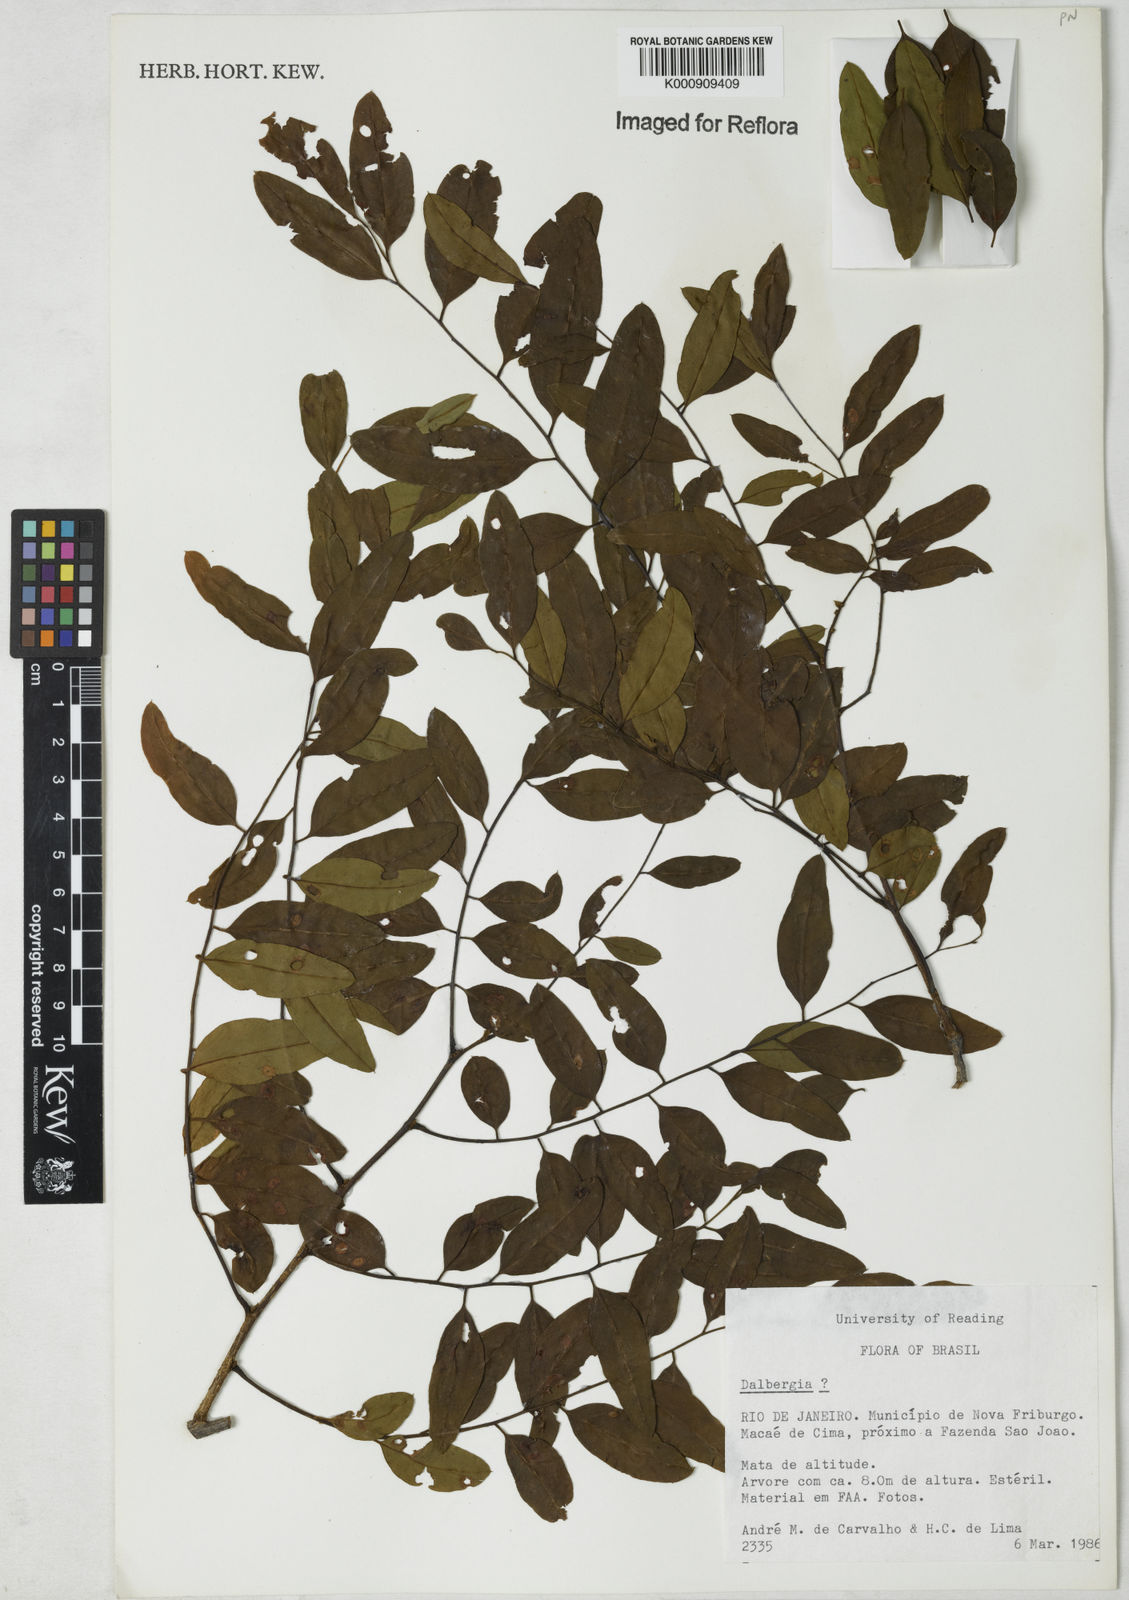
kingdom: Plantae
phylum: Tracheophyta
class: Magnoliopsida
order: Fabales
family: Fabaceae
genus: Dalbergia
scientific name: Dalbergia
